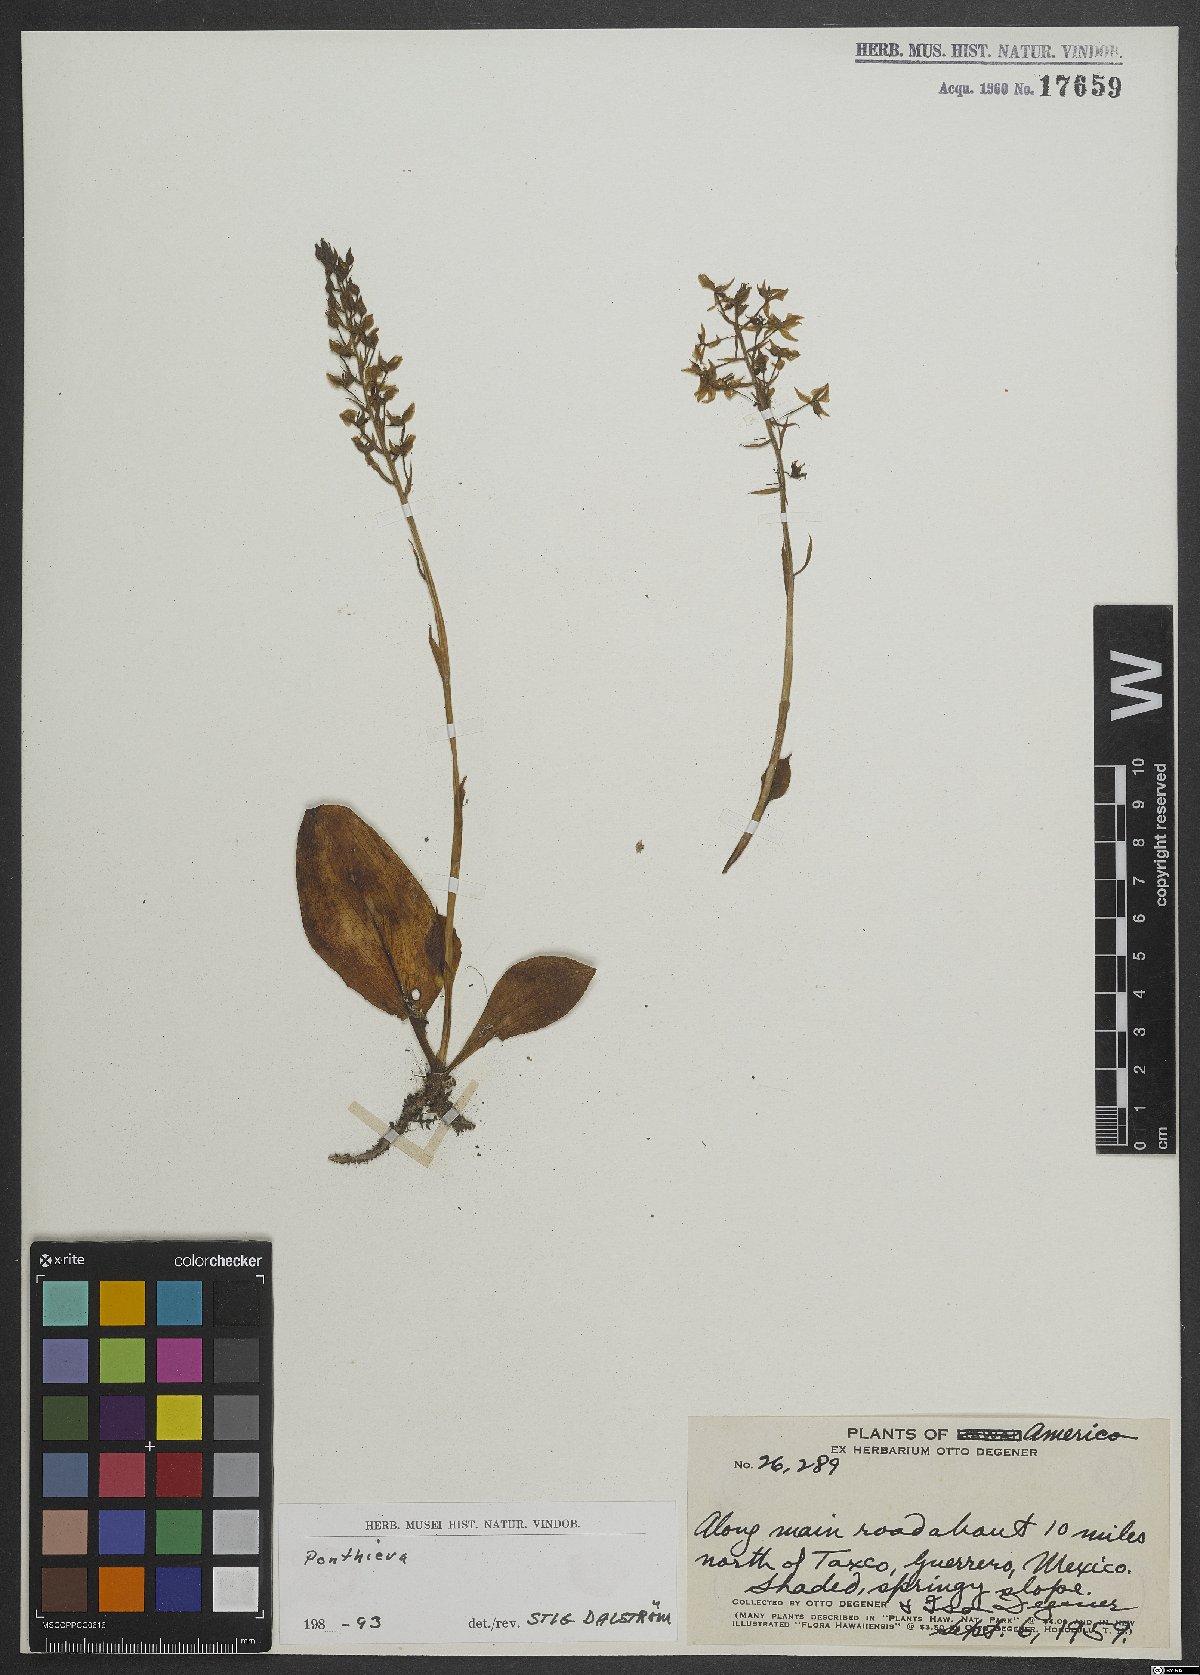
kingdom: Plantae
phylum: Tracheophyta
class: Liliopsida
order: Asparagales
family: Orchidaceae
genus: Ponthieva
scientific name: Ponthieva
